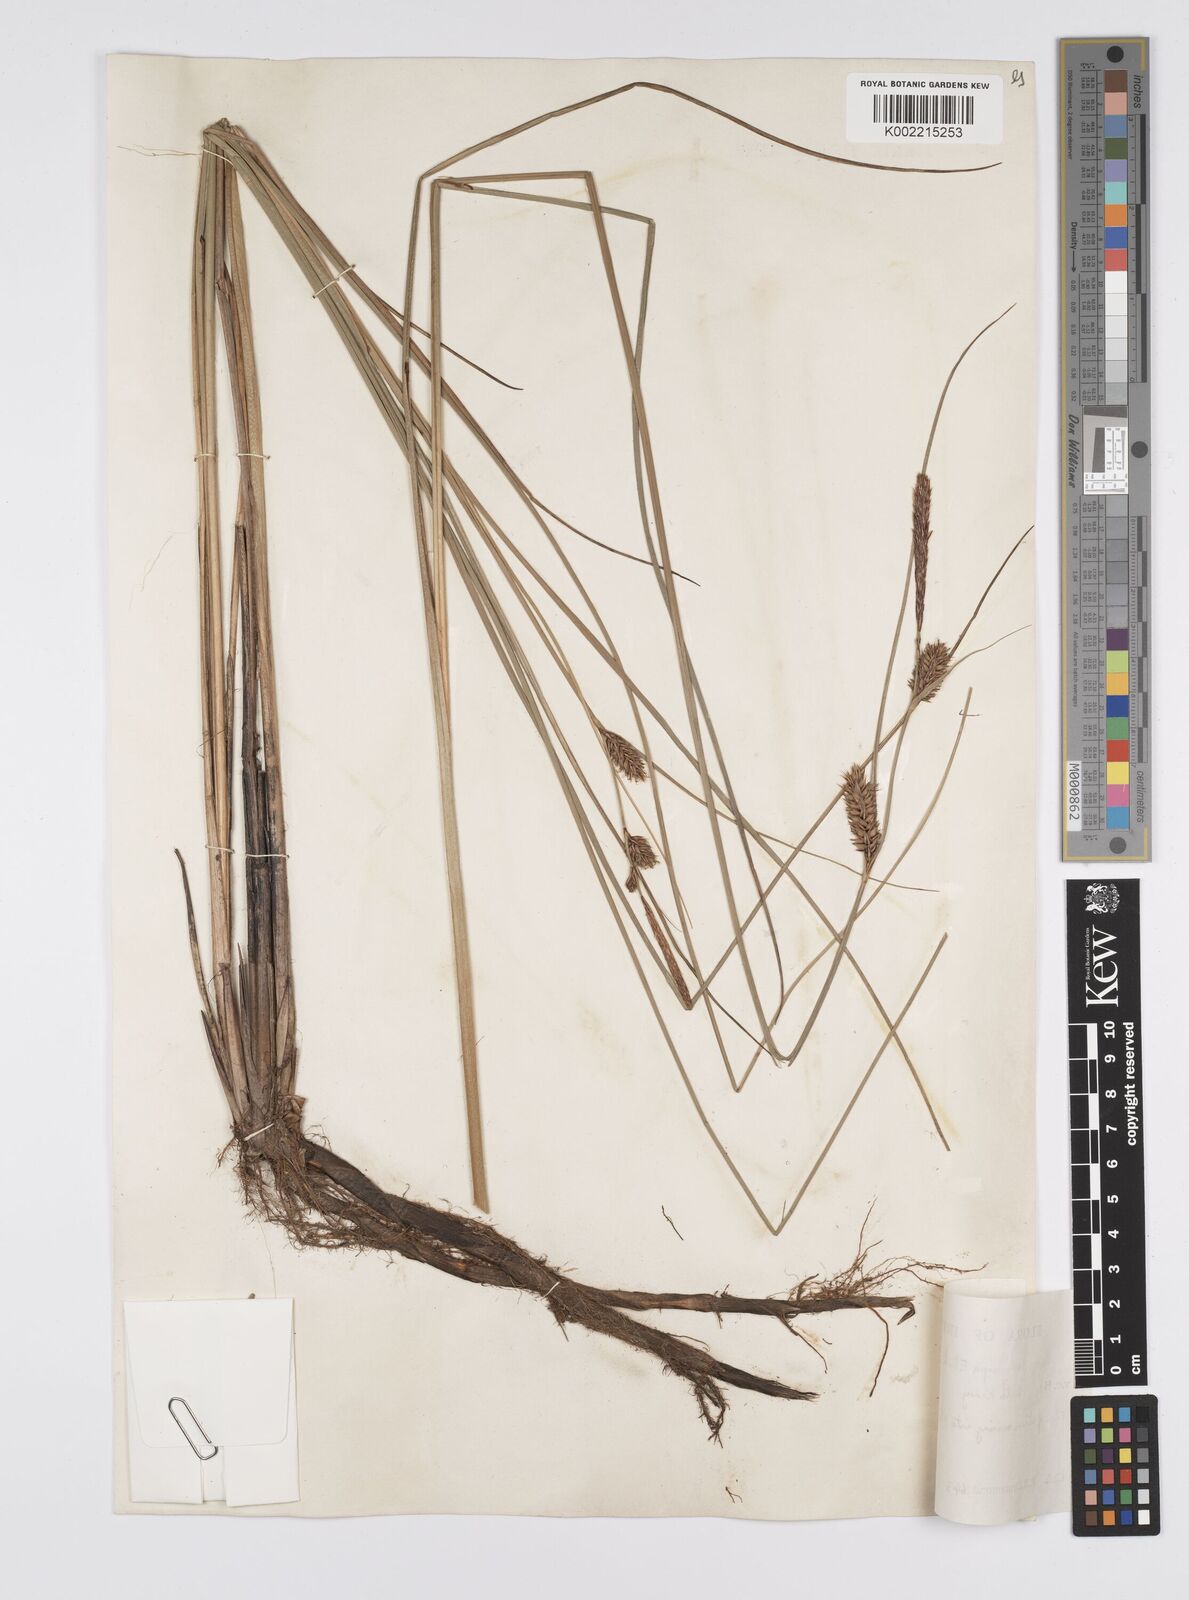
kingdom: Plantae
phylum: Tracheophyta
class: Liliopsida
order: Poales
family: Cyperaceae
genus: Carex
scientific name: Carex lasiocarpa
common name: Slender sedge
